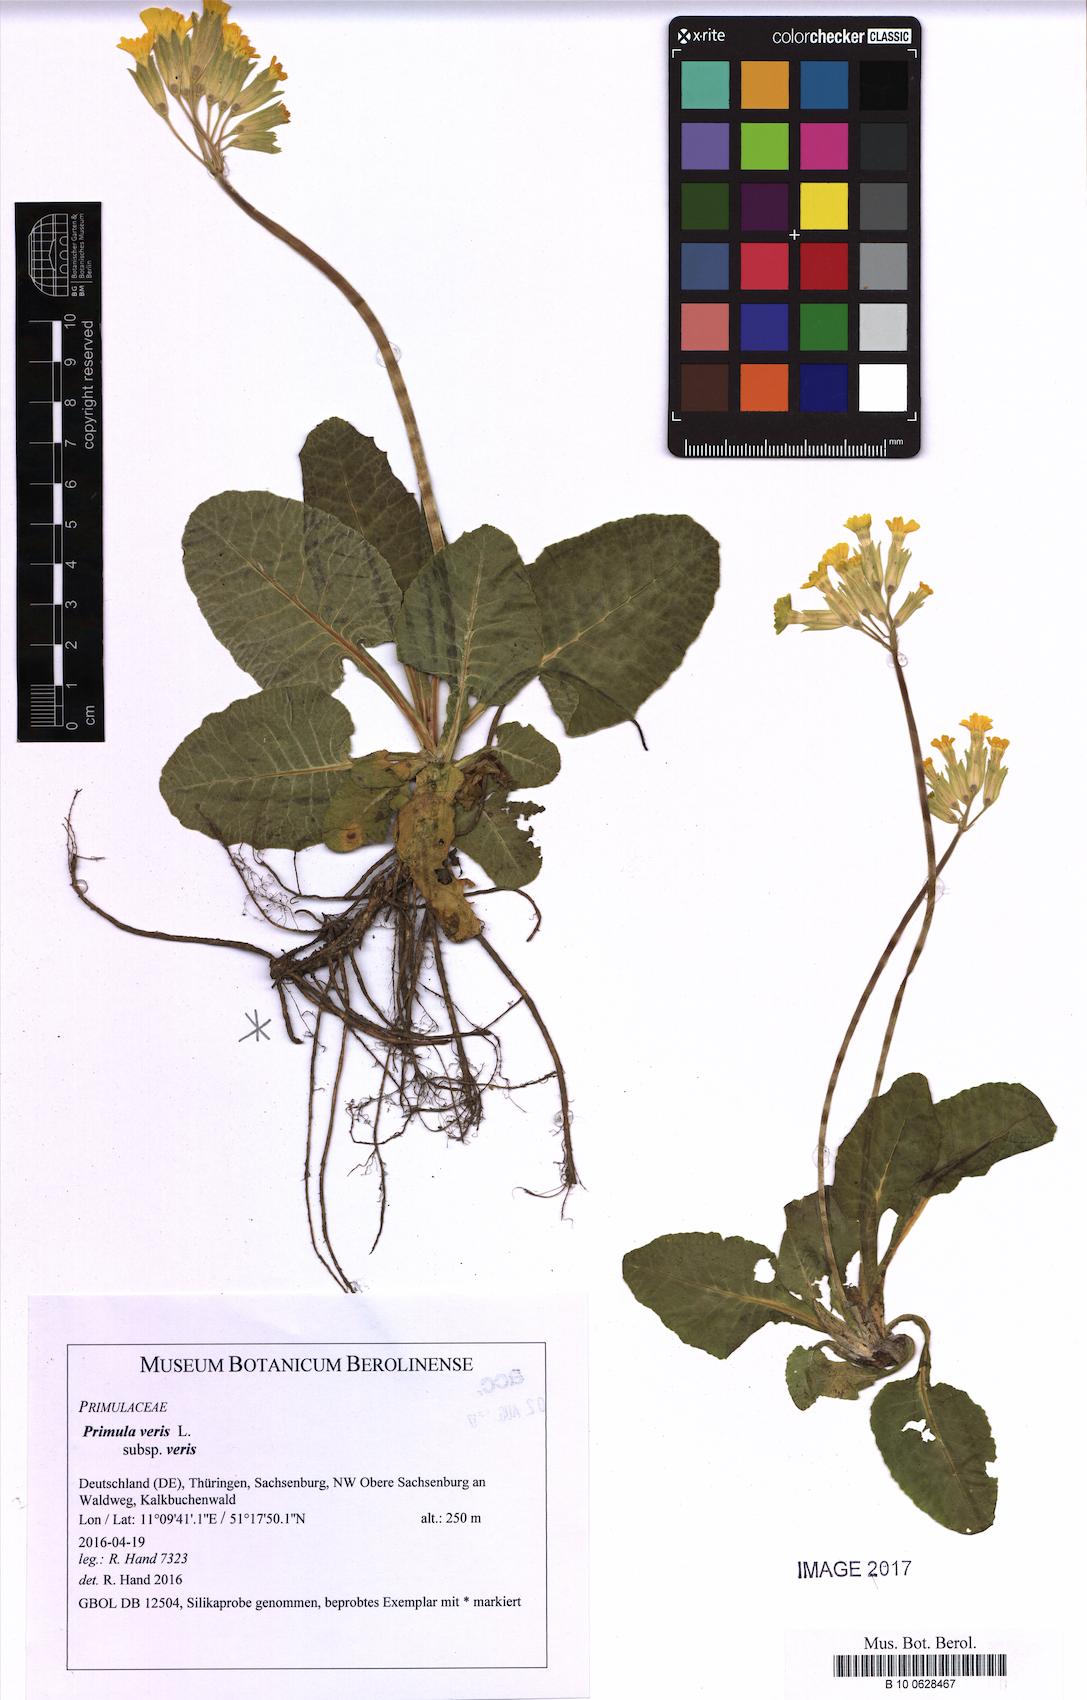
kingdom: Plantae
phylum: Tracheophyta
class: Magnoliopsida
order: Ericales
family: Primulaceae
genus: Primula
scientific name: Primula veris
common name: Cowslip
